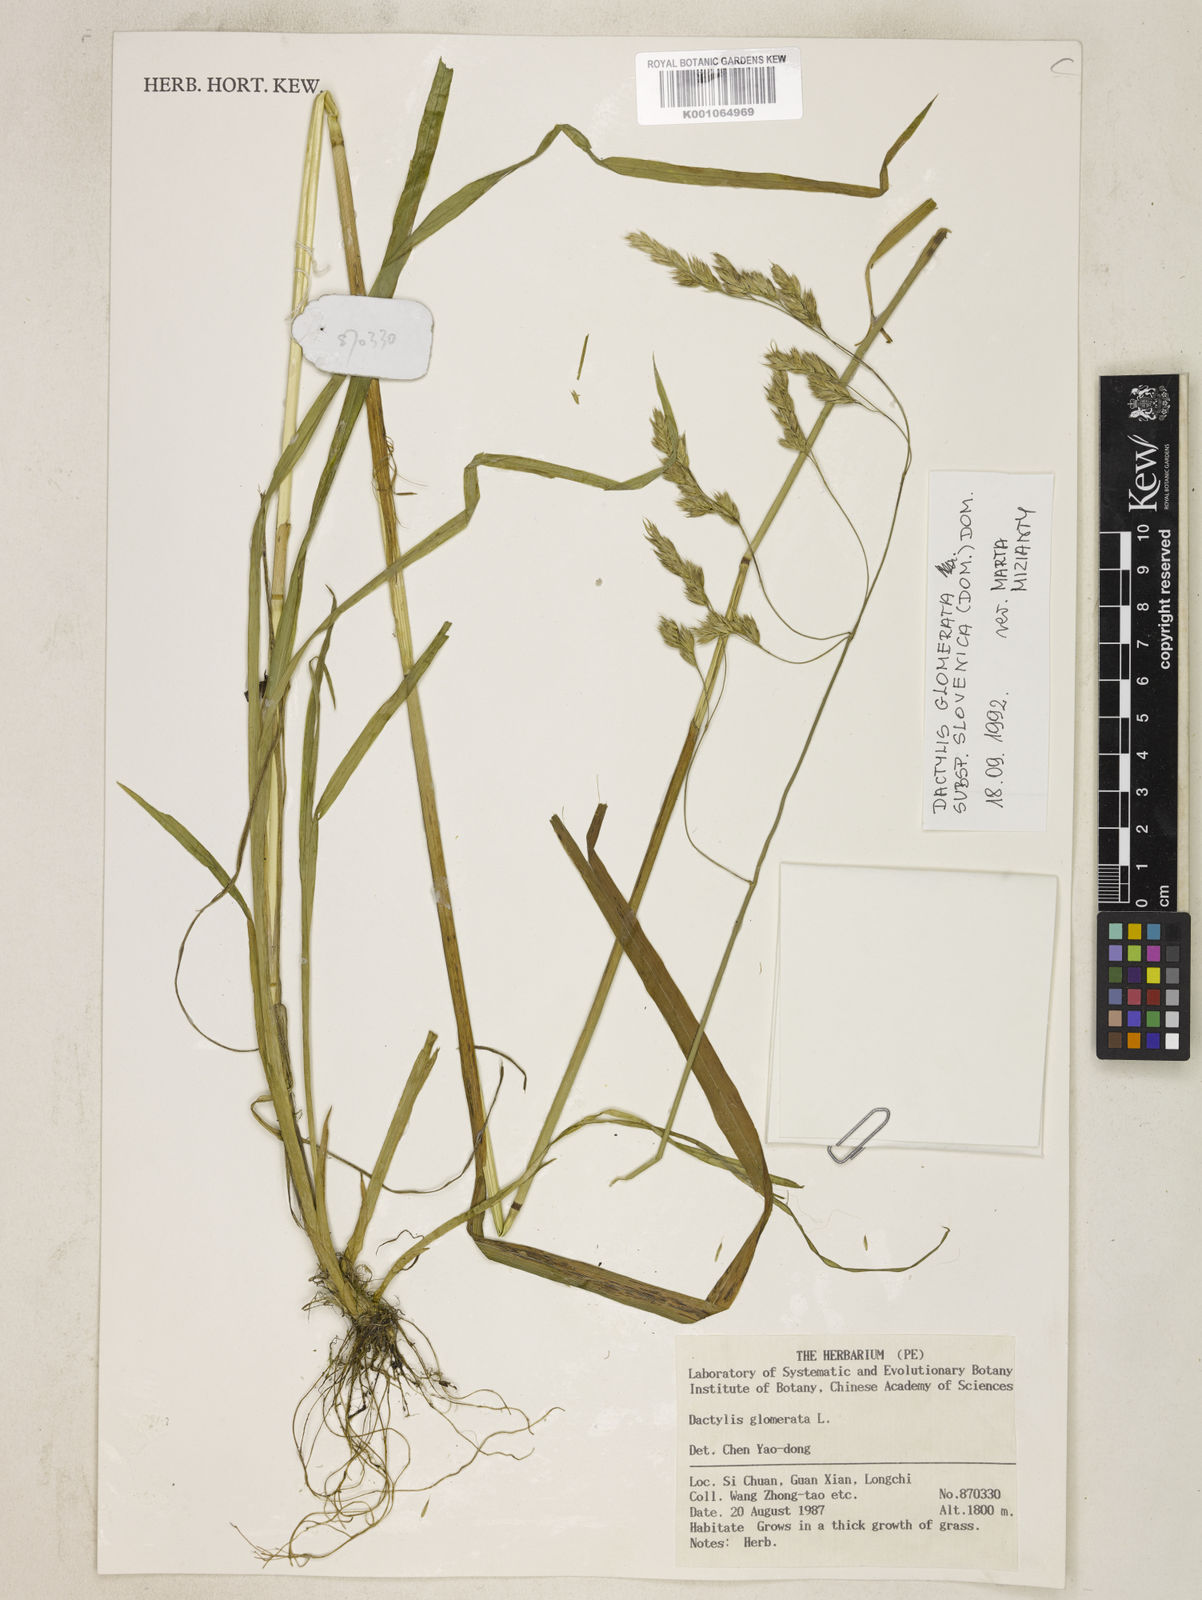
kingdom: Plantae
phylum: Tracheophyta
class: Liliopsida
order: Poales
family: Poaceae
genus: Dactylis
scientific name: Dactylis glomerata
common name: Orchardgrass
